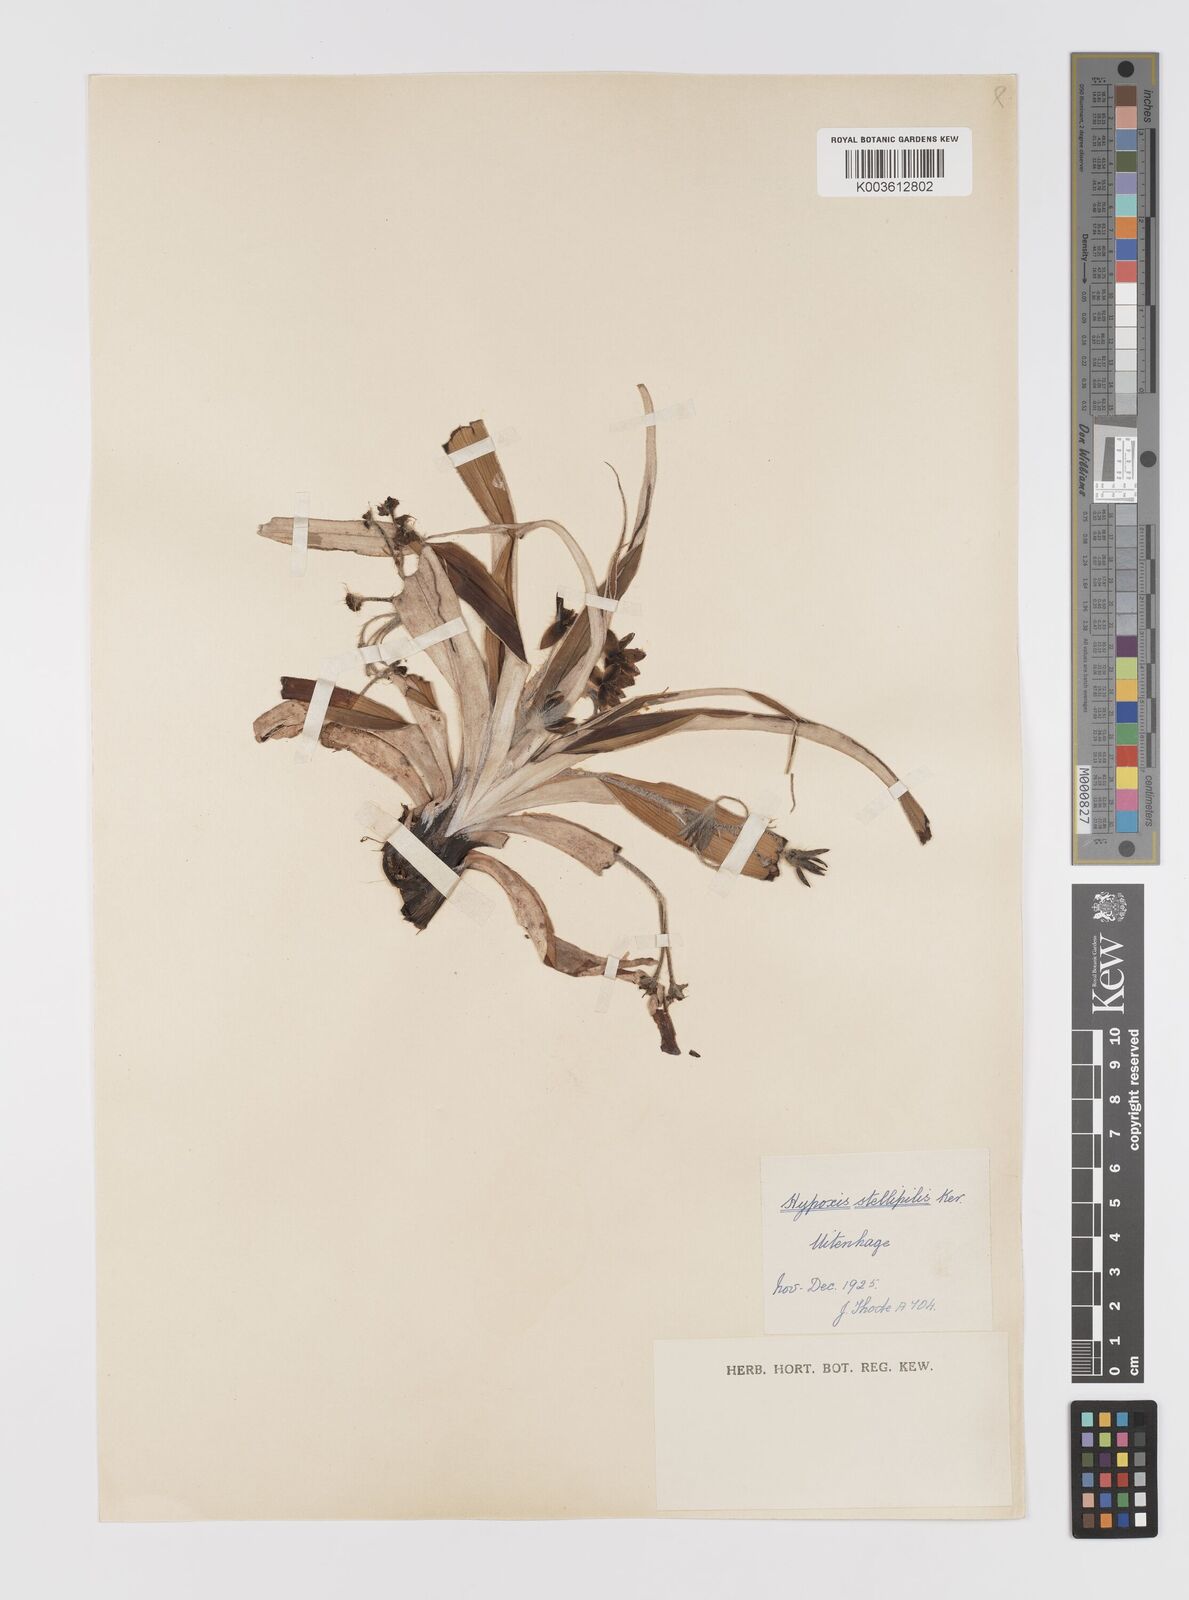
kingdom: Plantae
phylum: Tracheophyta
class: Liliopsida
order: Asparagales
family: Hypoxidaceae
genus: Hypoxis
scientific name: Hypoxis stellipilis
